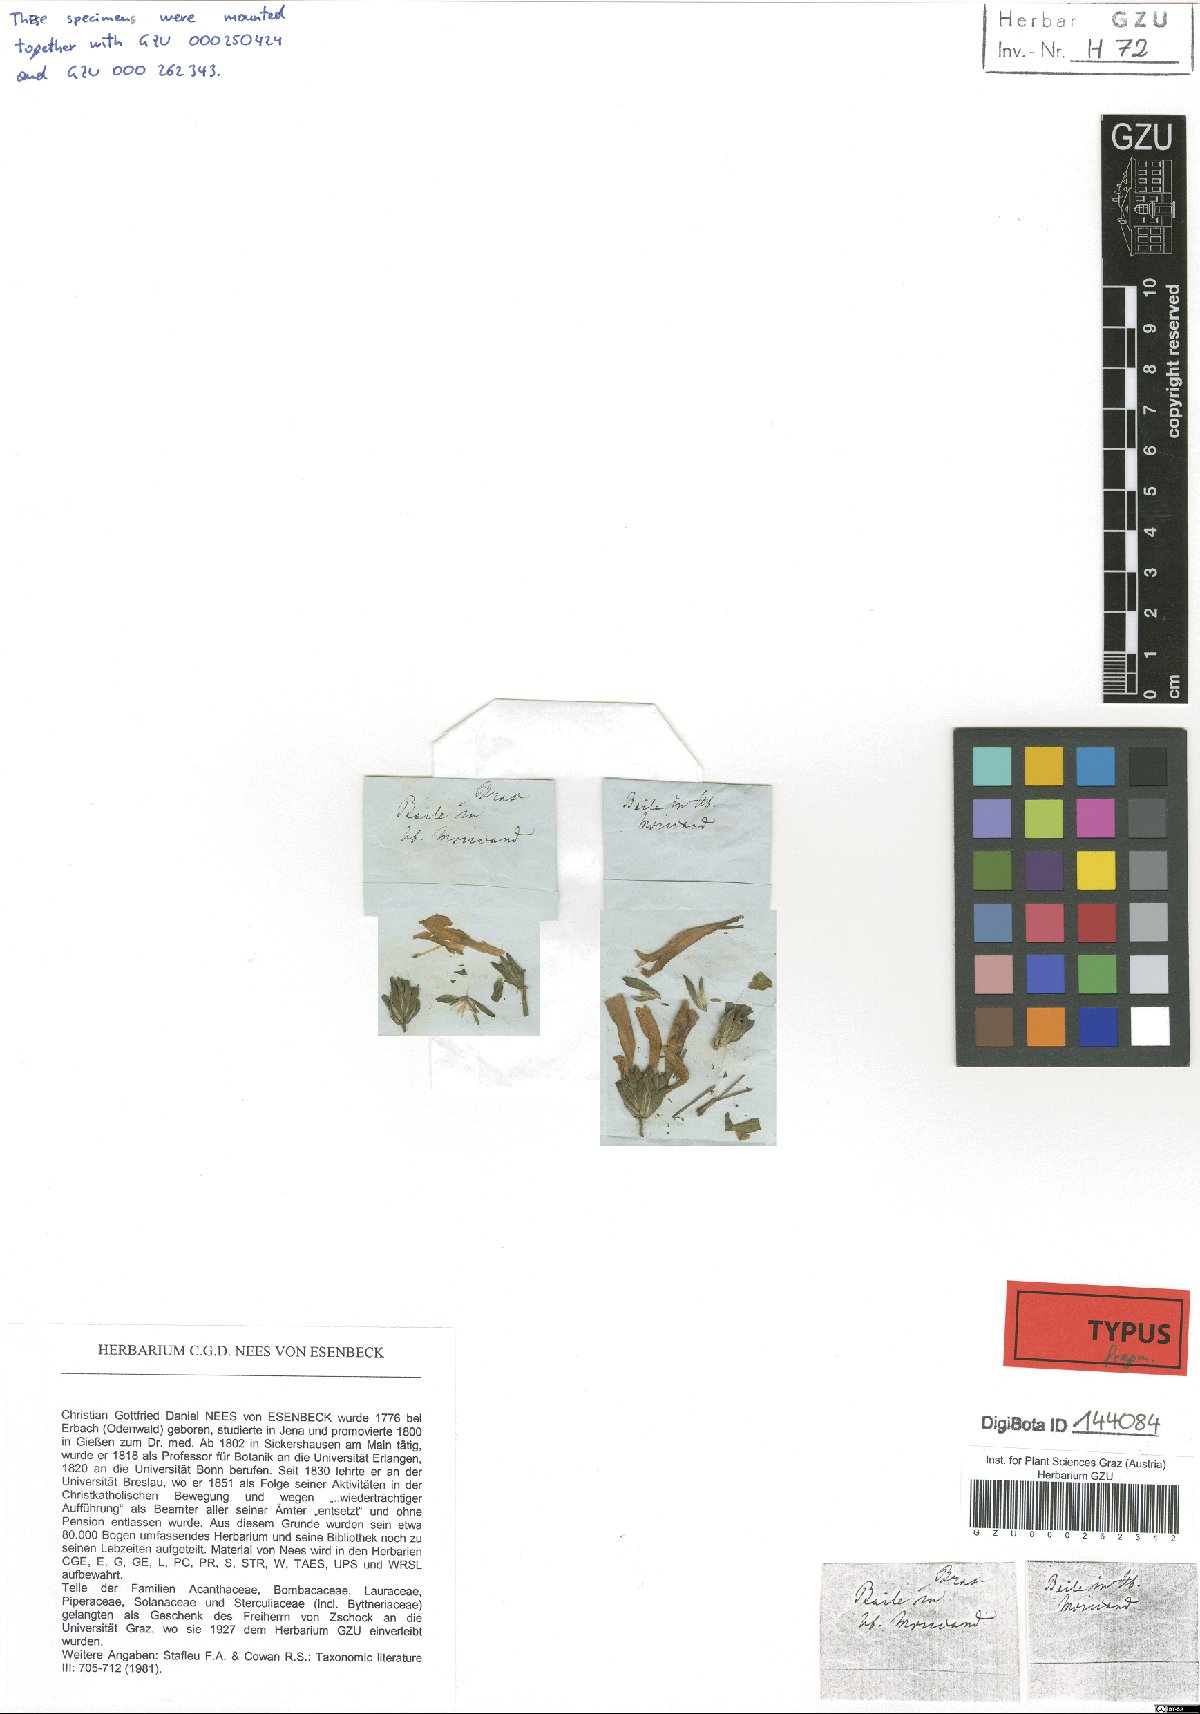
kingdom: Plantae
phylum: Tracheophyta
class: Magnoliopsida
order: Lamiales
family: Acanthaceae
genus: Dicliptera
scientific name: Dicliptera squarrosa
